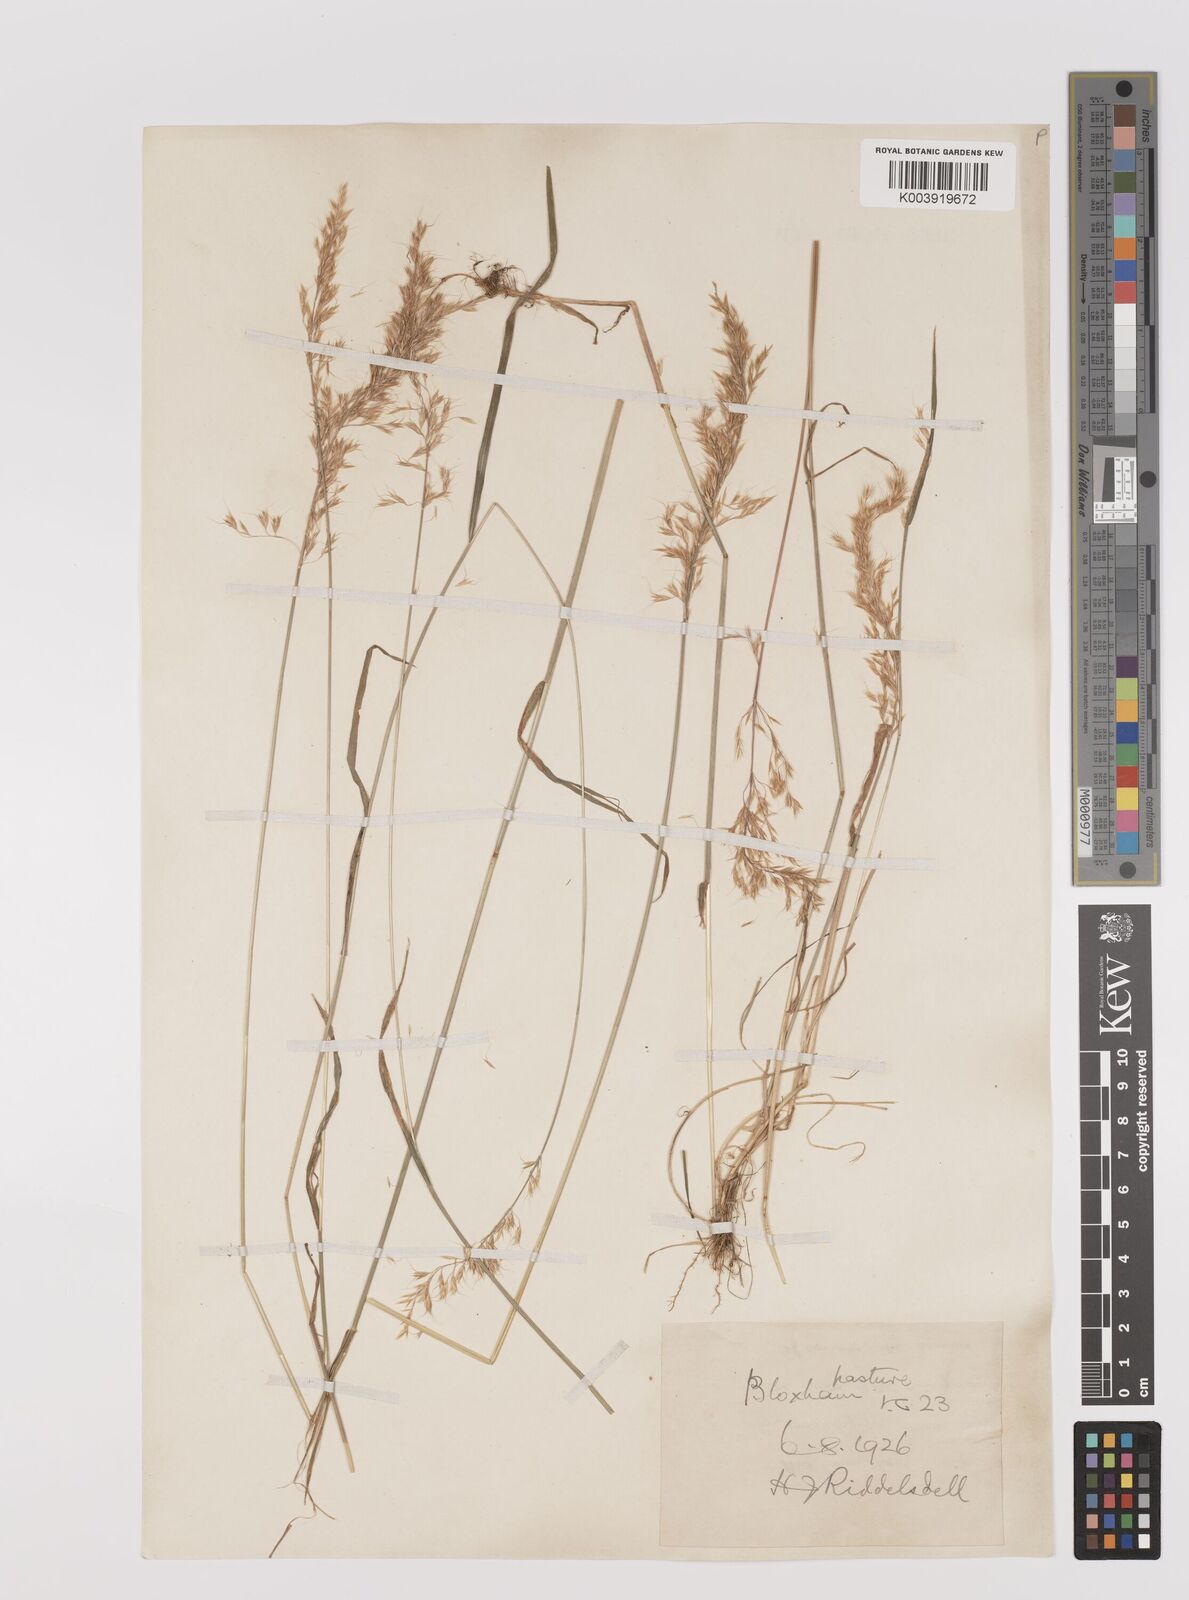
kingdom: Plantae
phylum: Tracheophyta
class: Liliopsida
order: Poales
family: Poaceae
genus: Trisetum
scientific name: Trisetum flavescens
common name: Yellow oat-grass
